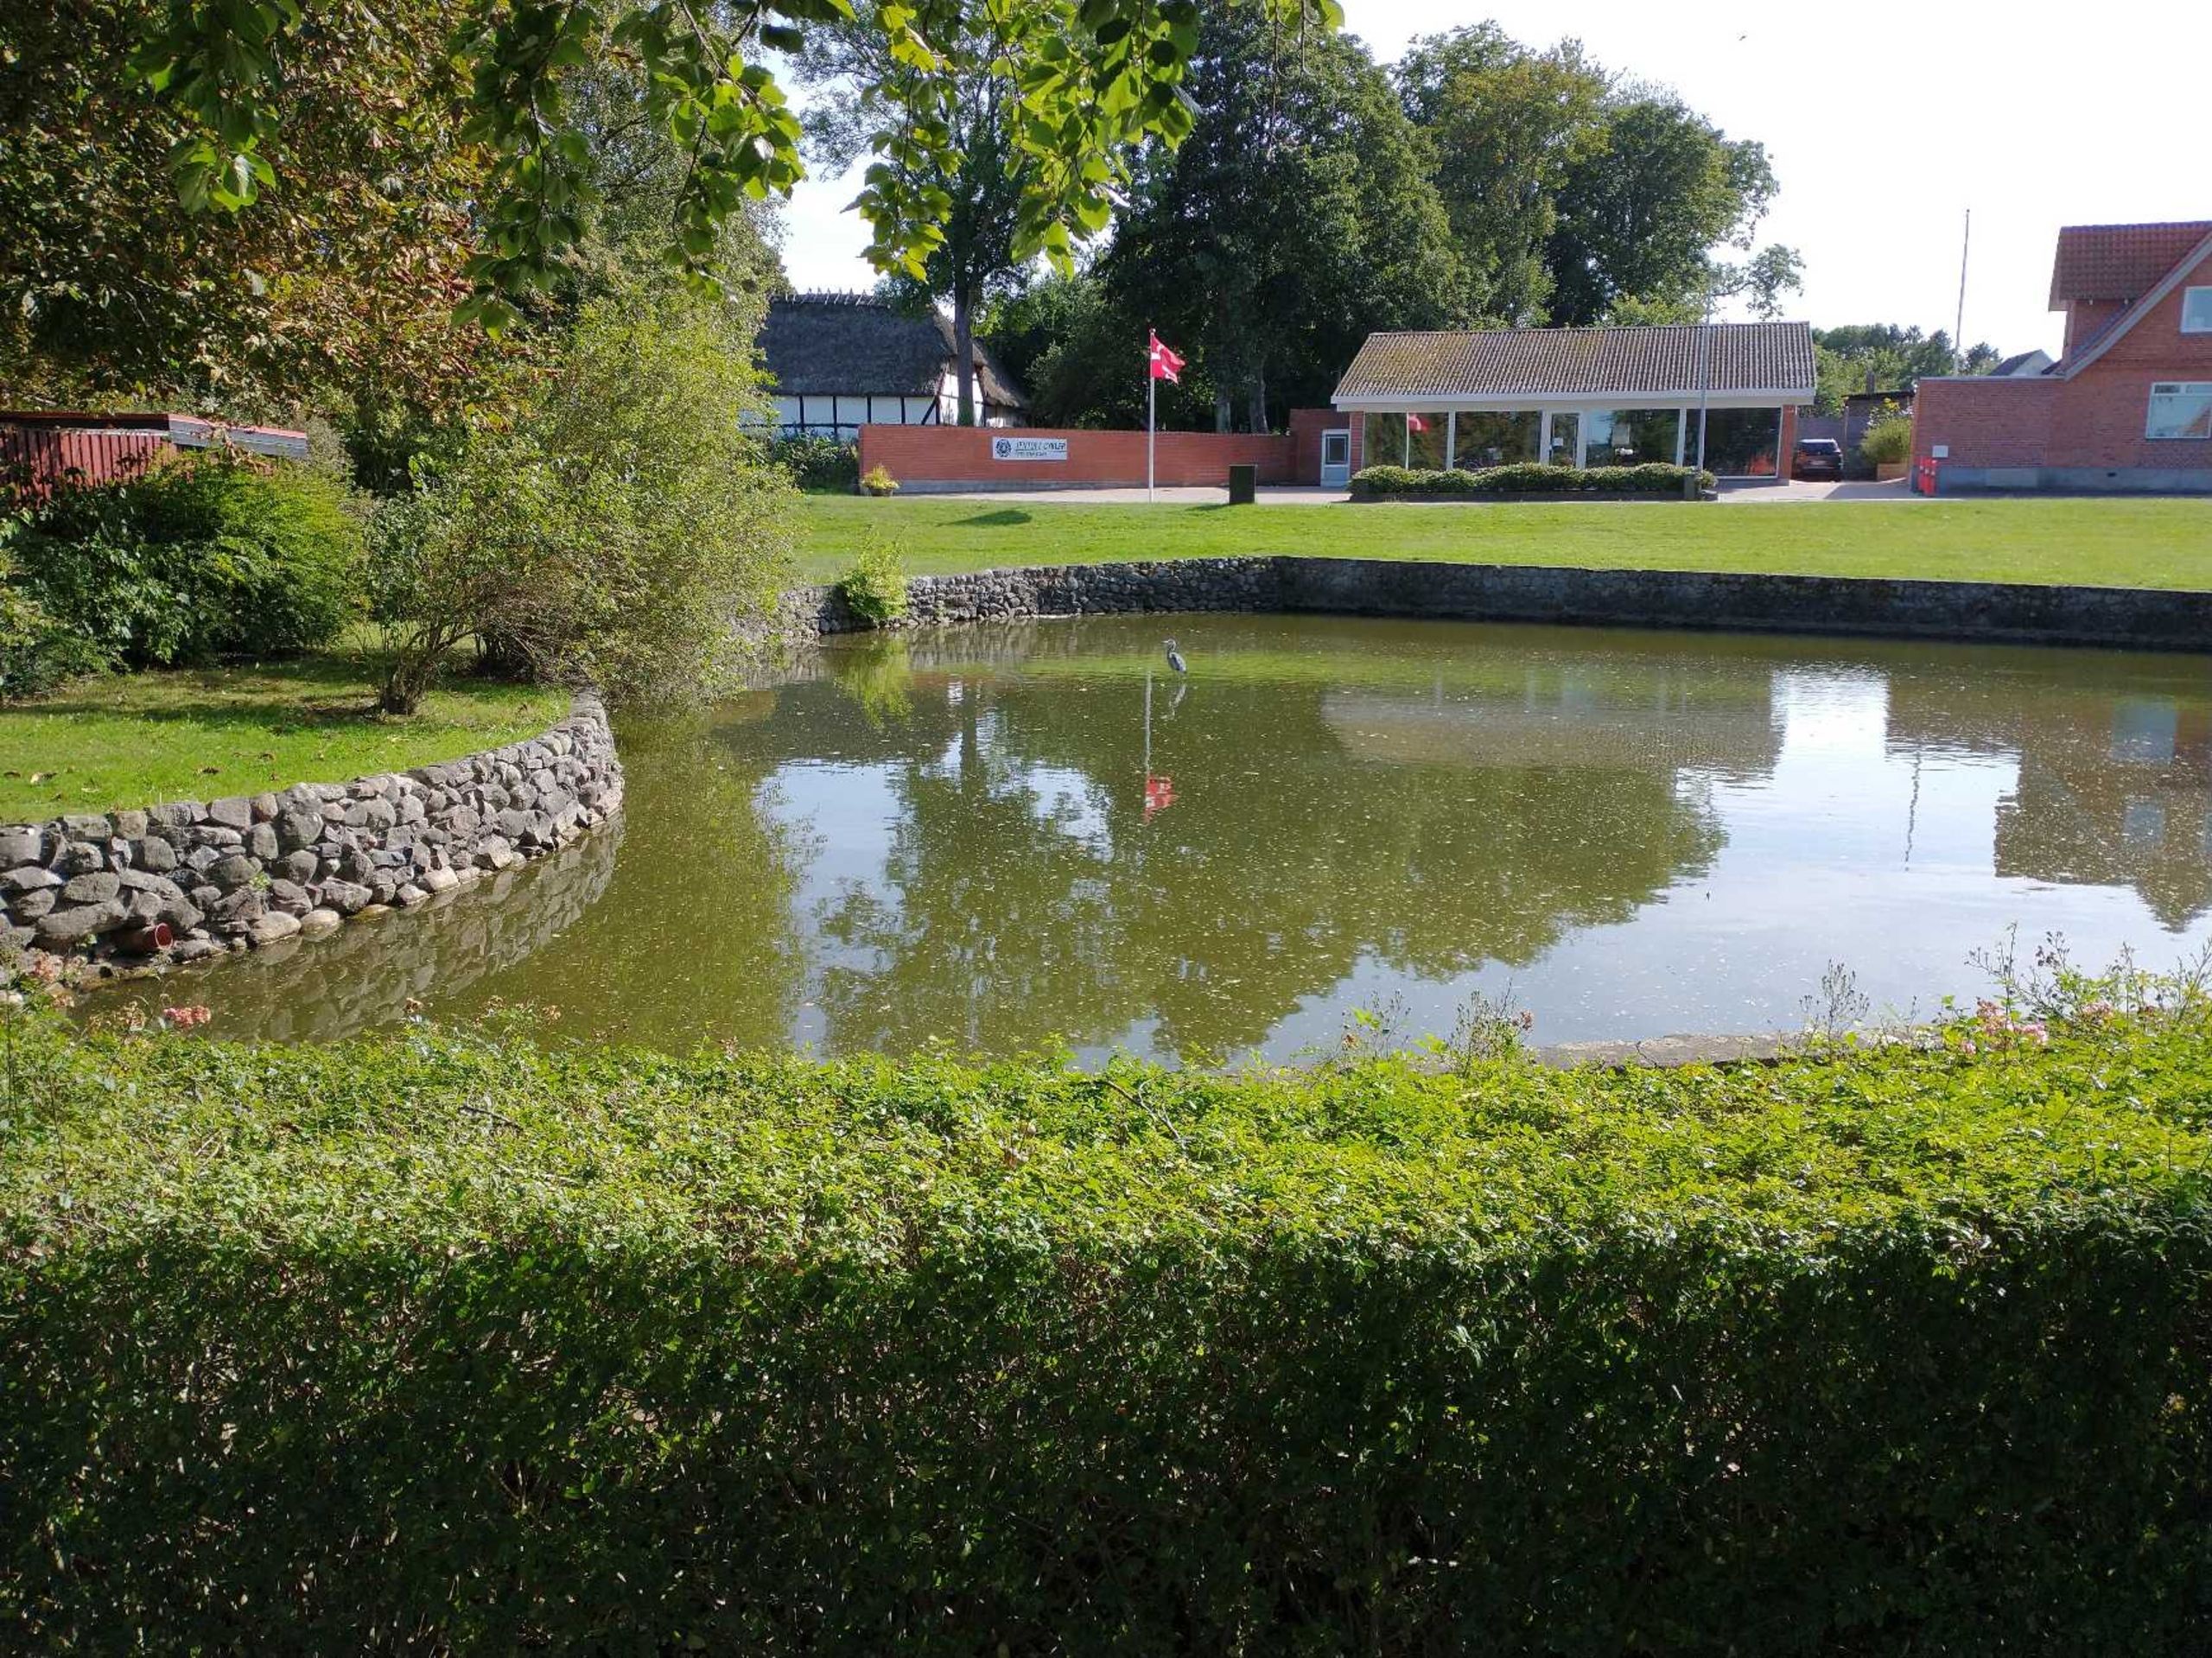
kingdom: Animalia
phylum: Chordata
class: Aves
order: Pelecaniformes
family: Ardeidae
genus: Ardea
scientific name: Ardea cinerea
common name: Fiskehejre
